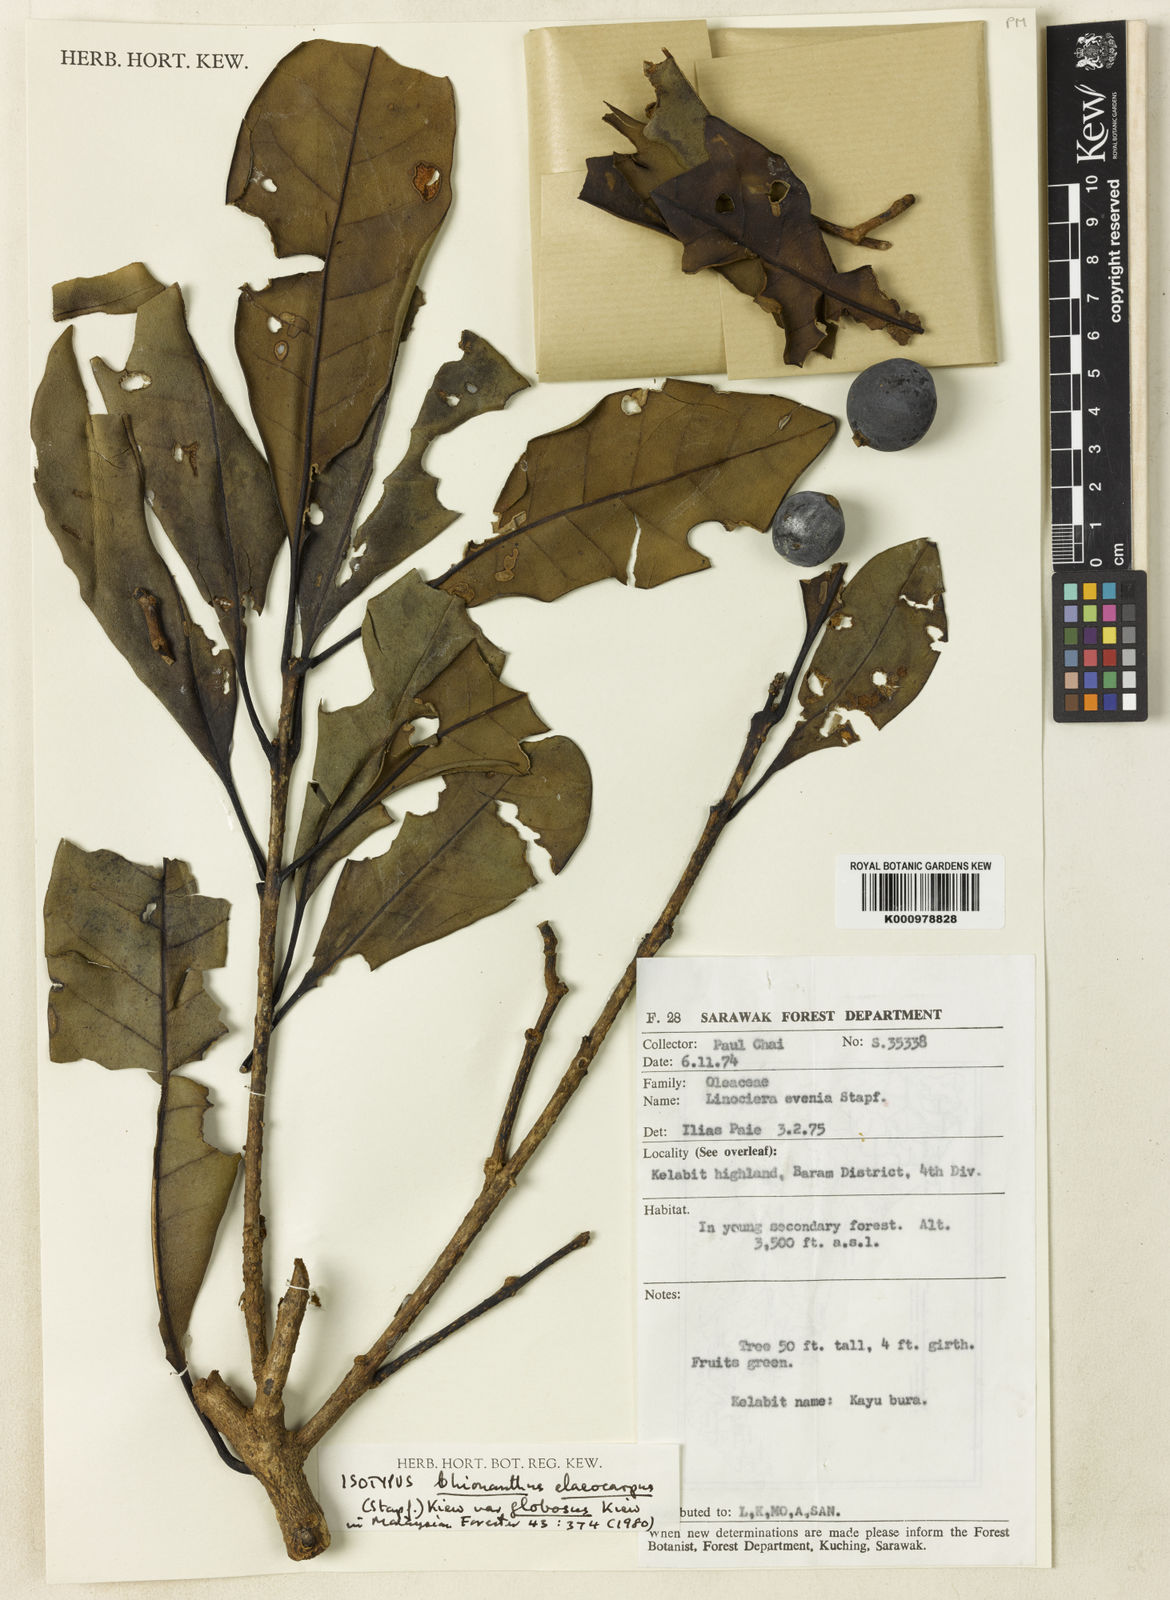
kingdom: Plantae
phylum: Tracheophyta
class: Magnoliopsida
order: Lamiales
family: Oleaceae
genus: Chionanthus
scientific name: Chionanthus globosus
